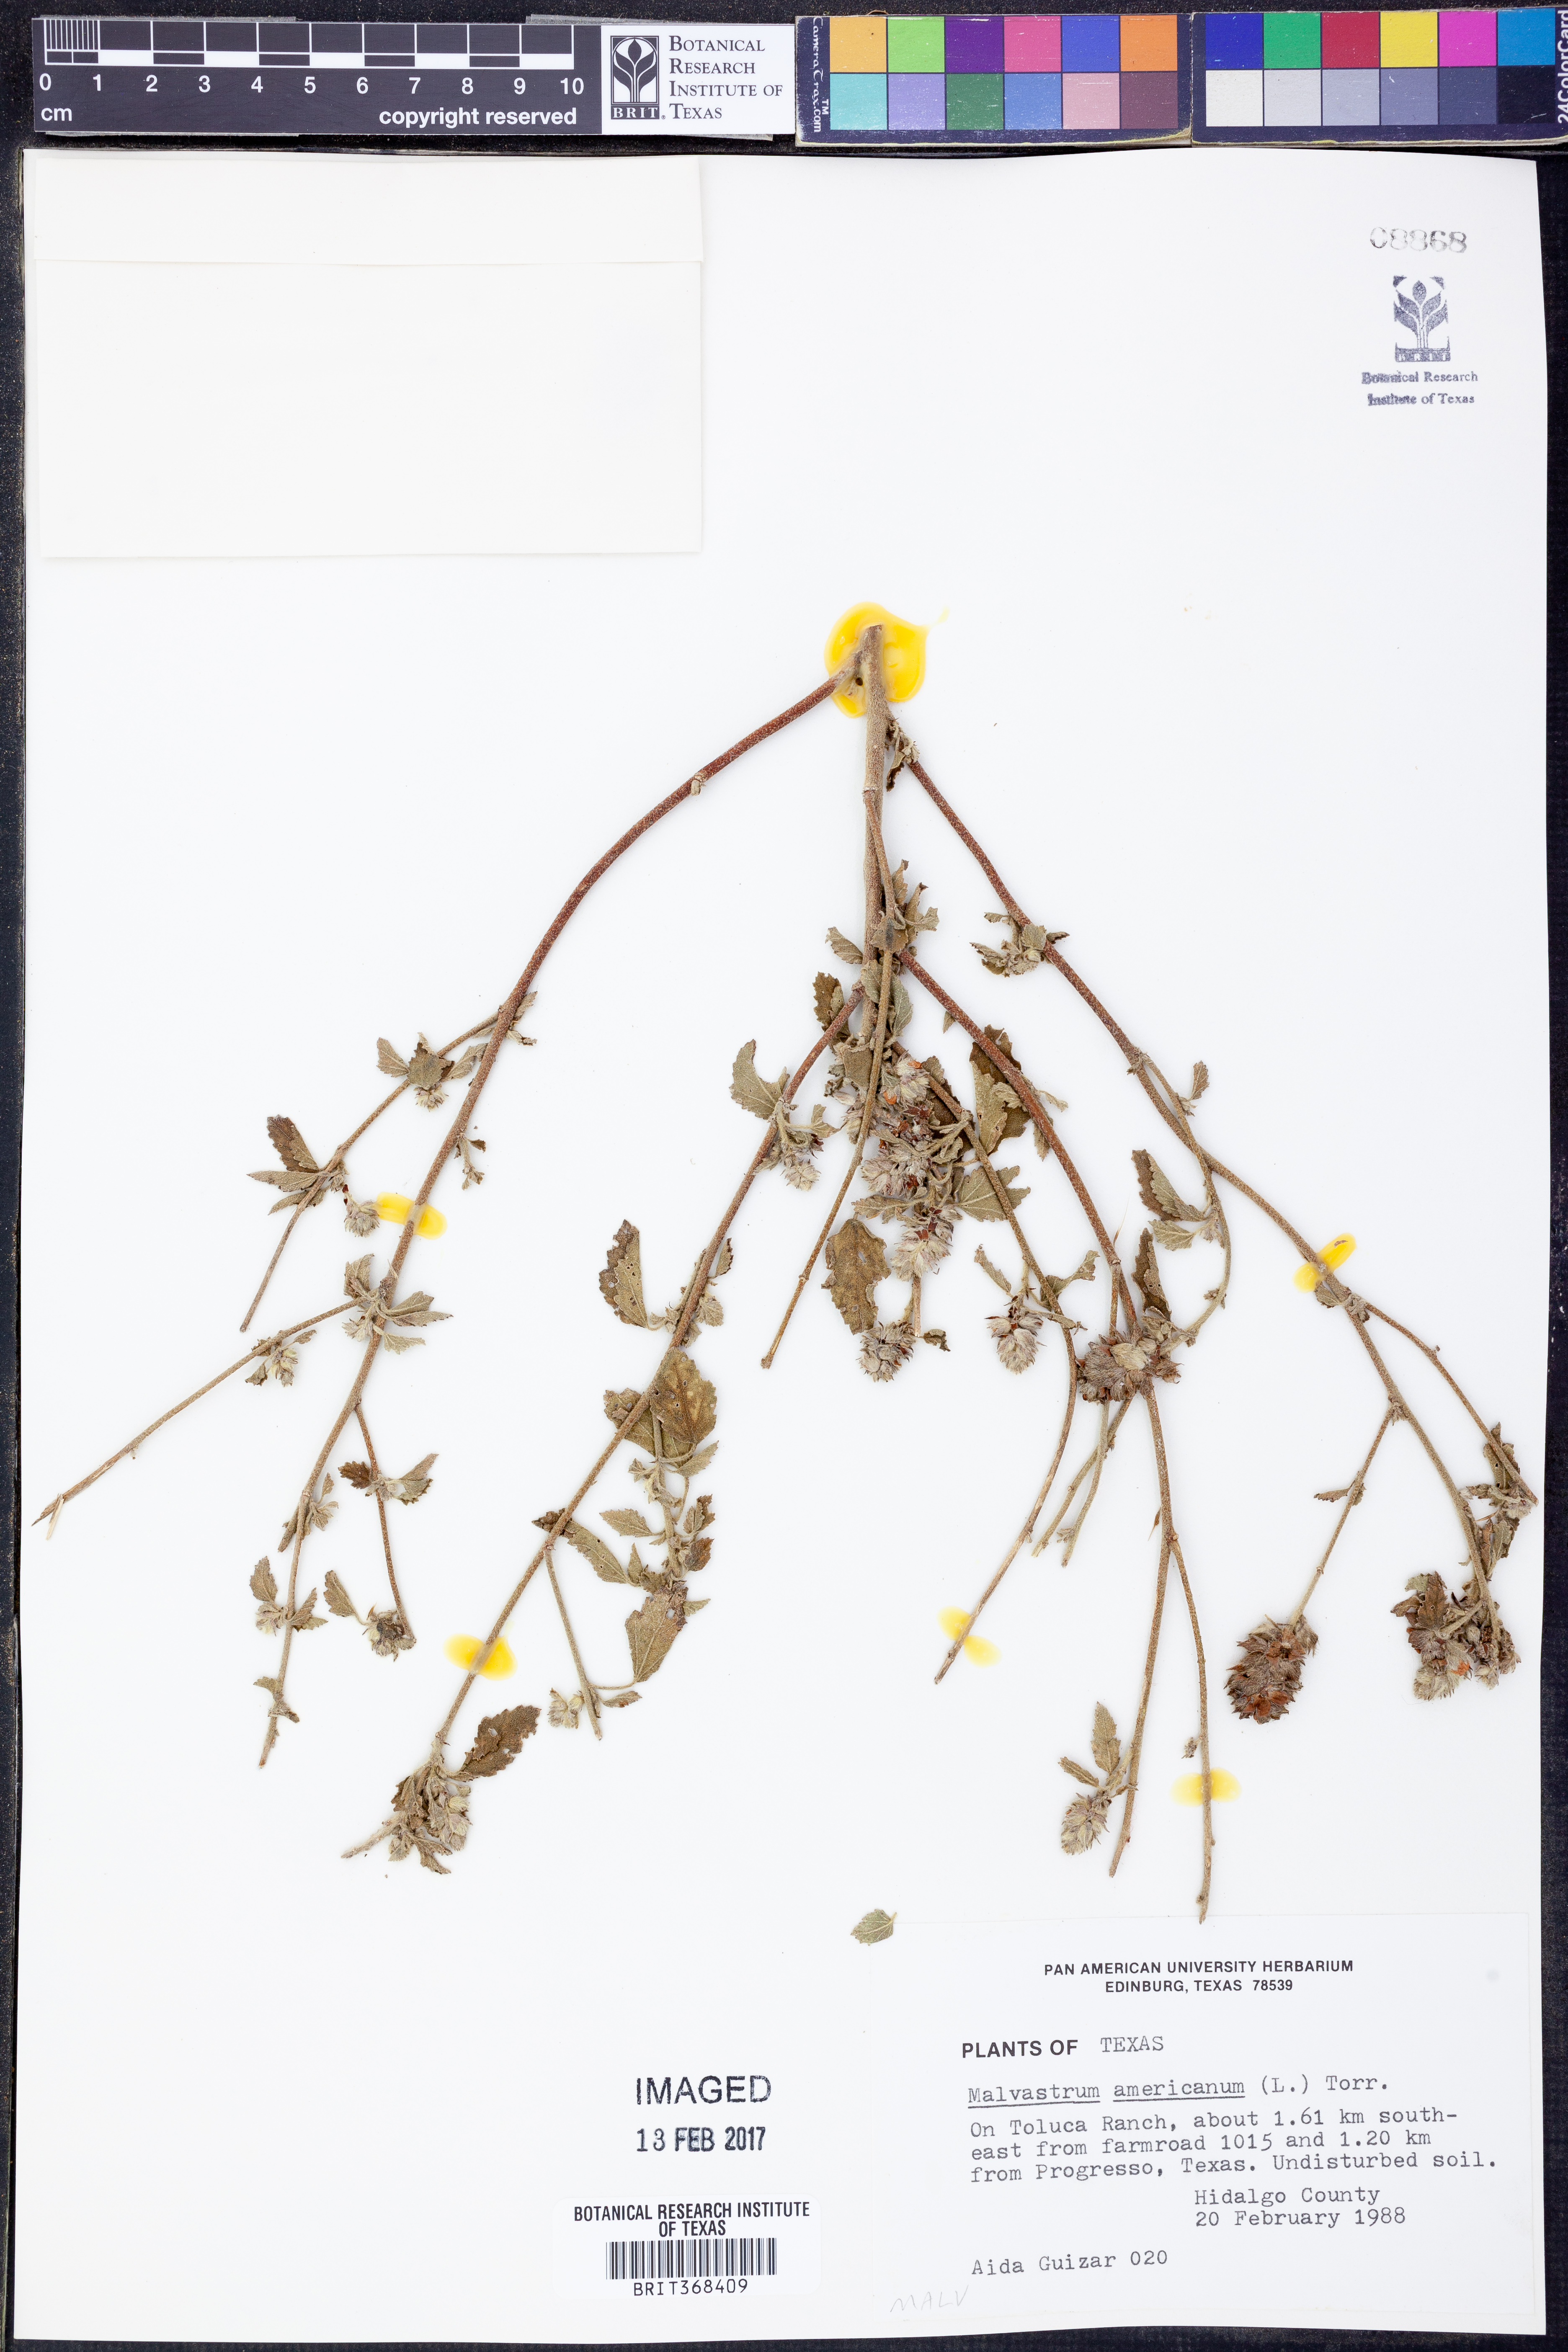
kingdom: Plantae
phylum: Tracheophyta
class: Magnoliopsida
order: Malvales
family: Malvaceae
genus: Malvastrum
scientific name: Malvastrum americanum
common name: Spiked malvastrum
